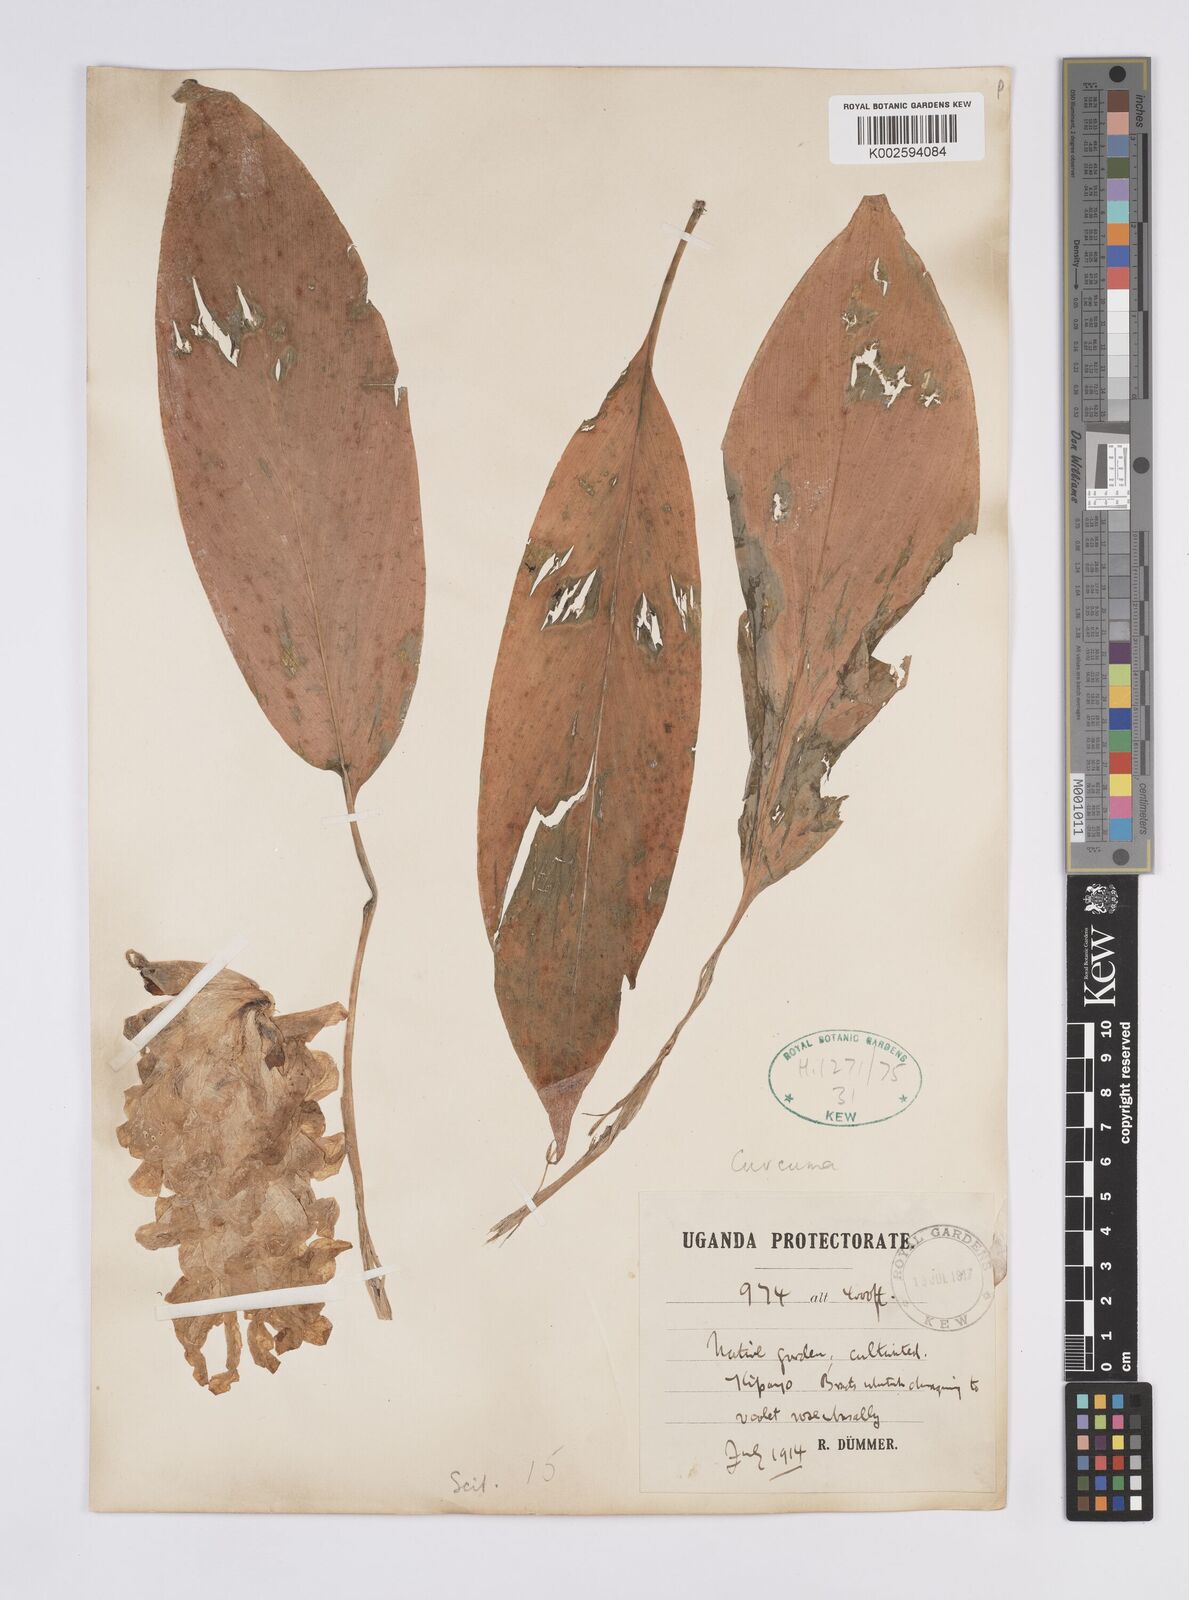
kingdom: Plantae
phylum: Tracheophyta
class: Liliopsida
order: Zingiberales
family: Zingiberaceae
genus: Curcuma
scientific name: Curcuma longa
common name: Turmeric
